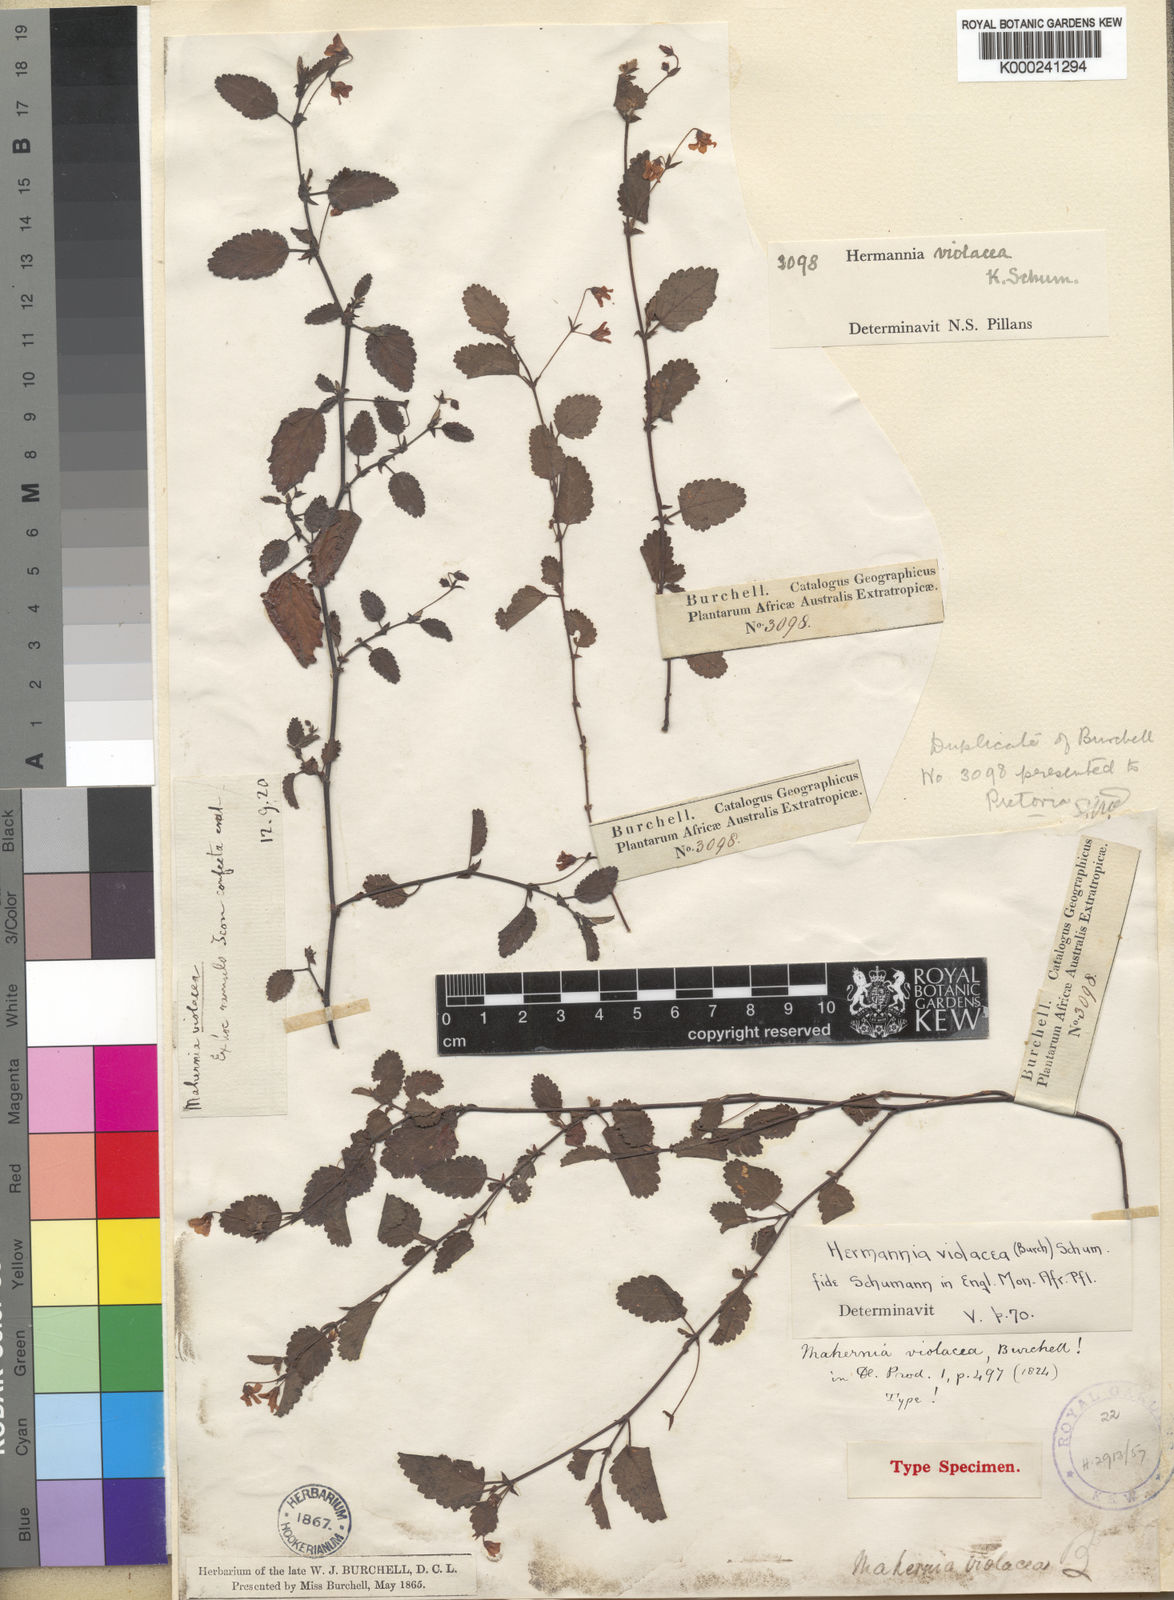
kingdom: Plantae
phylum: Tracheophyta
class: Magnoliopsida
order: Malvales
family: Malvaceae
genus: Hermannia
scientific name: Hermannia violacea
